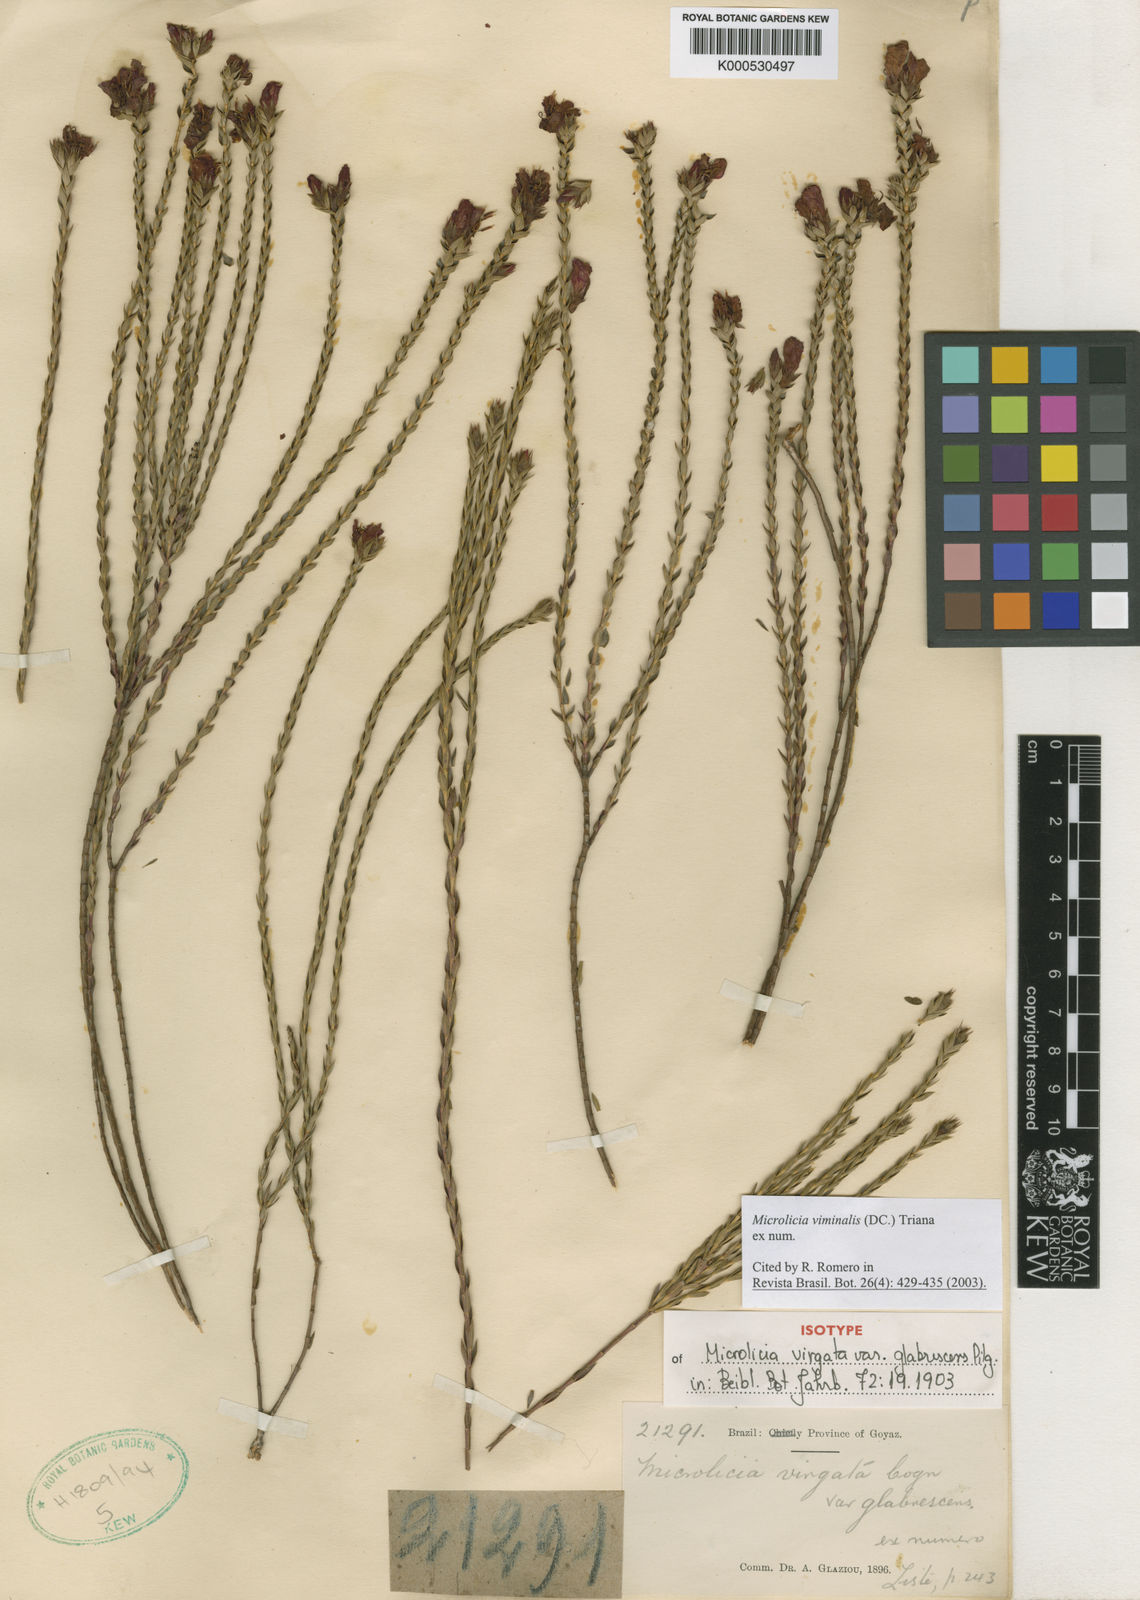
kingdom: Plantae
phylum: Tracheophyta
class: Magnoliopsida
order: Myrtales
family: Melastomataceae
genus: Microlicia
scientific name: Microlicia viminalis
